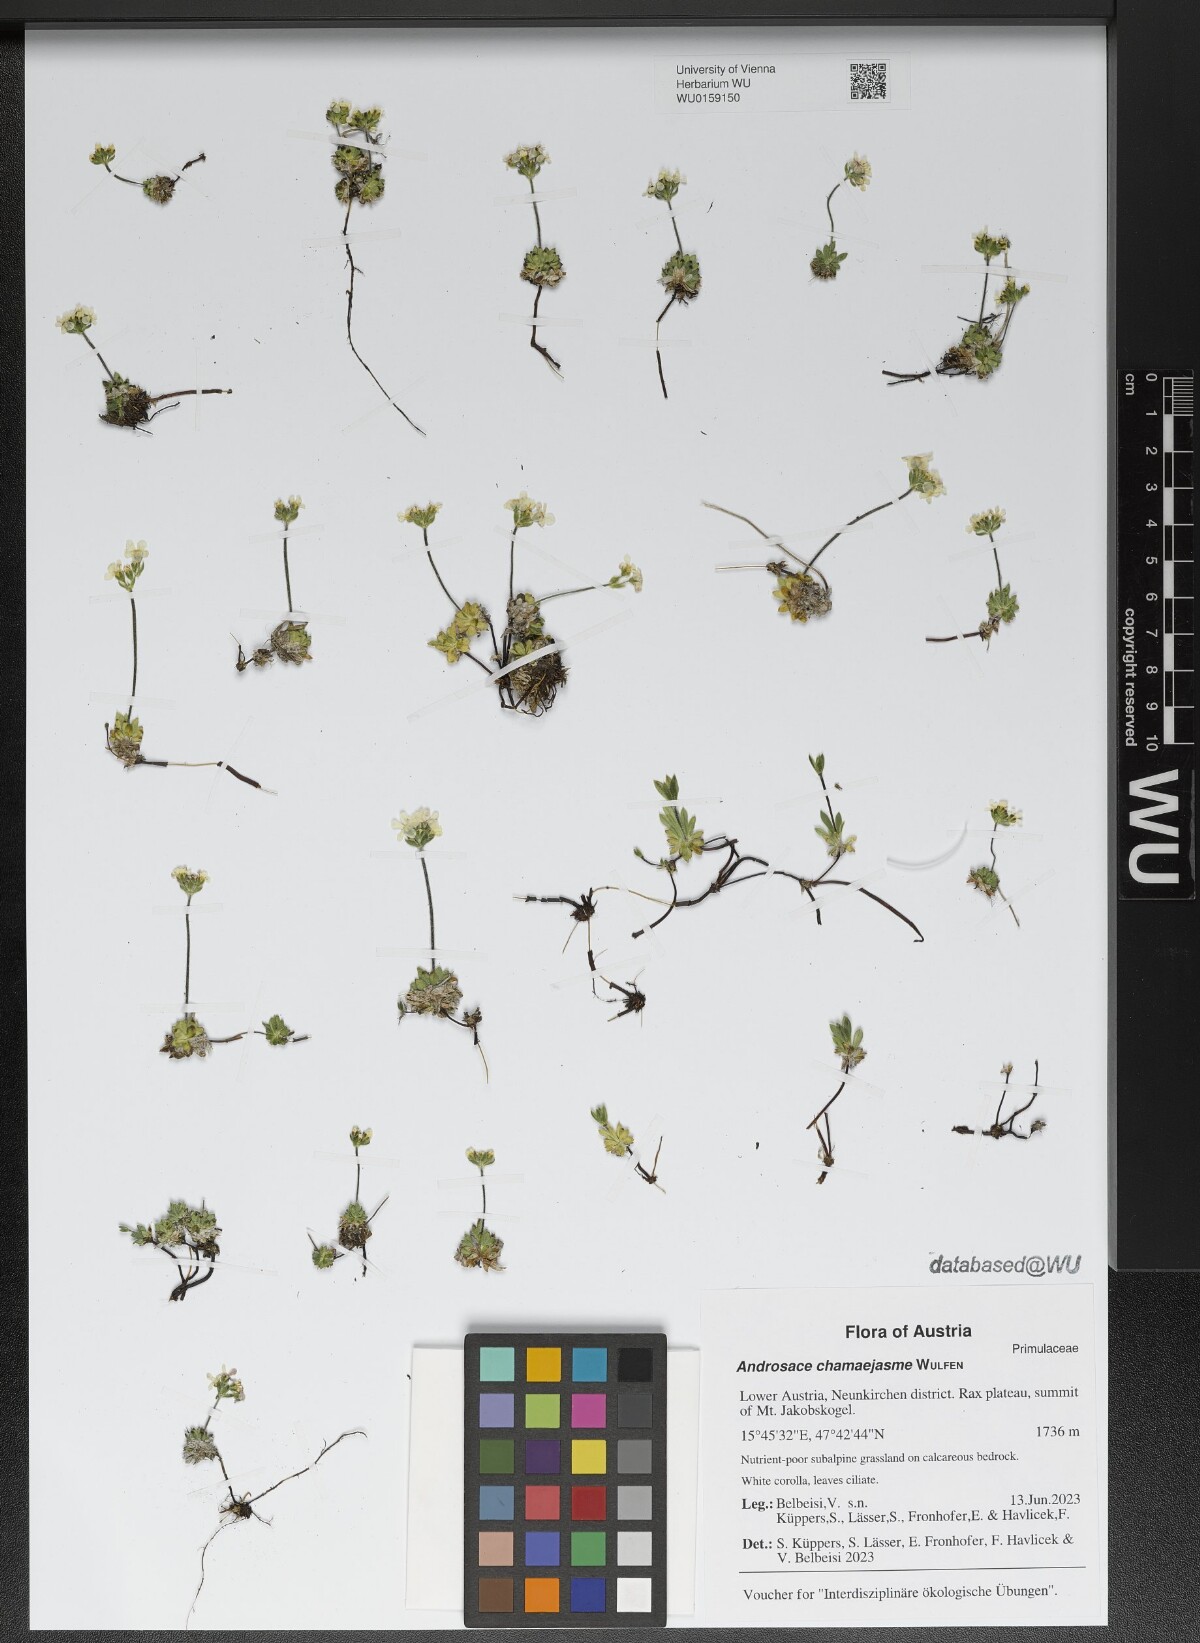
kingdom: Plantae
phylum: Tracheophyta
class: Magnoliopsida
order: Ericales
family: Primulaceae
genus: Androsace
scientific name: Androsace chamaejasme
